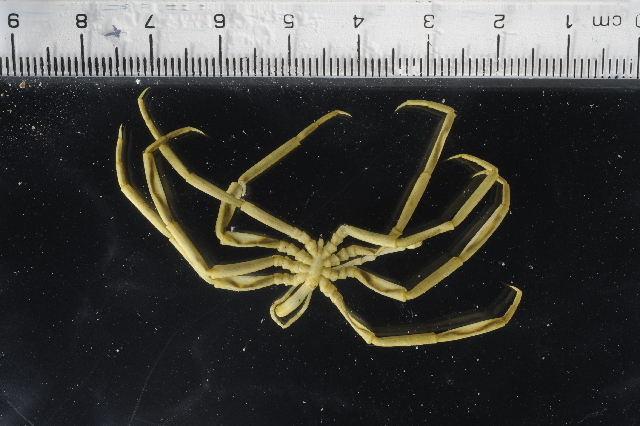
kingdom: Animalia
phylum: Arthropoda
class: Pycnogonida
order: Pantopoda
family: Colossendeidae
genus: Colossendeis
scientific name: Colossendeis bouvetensis
